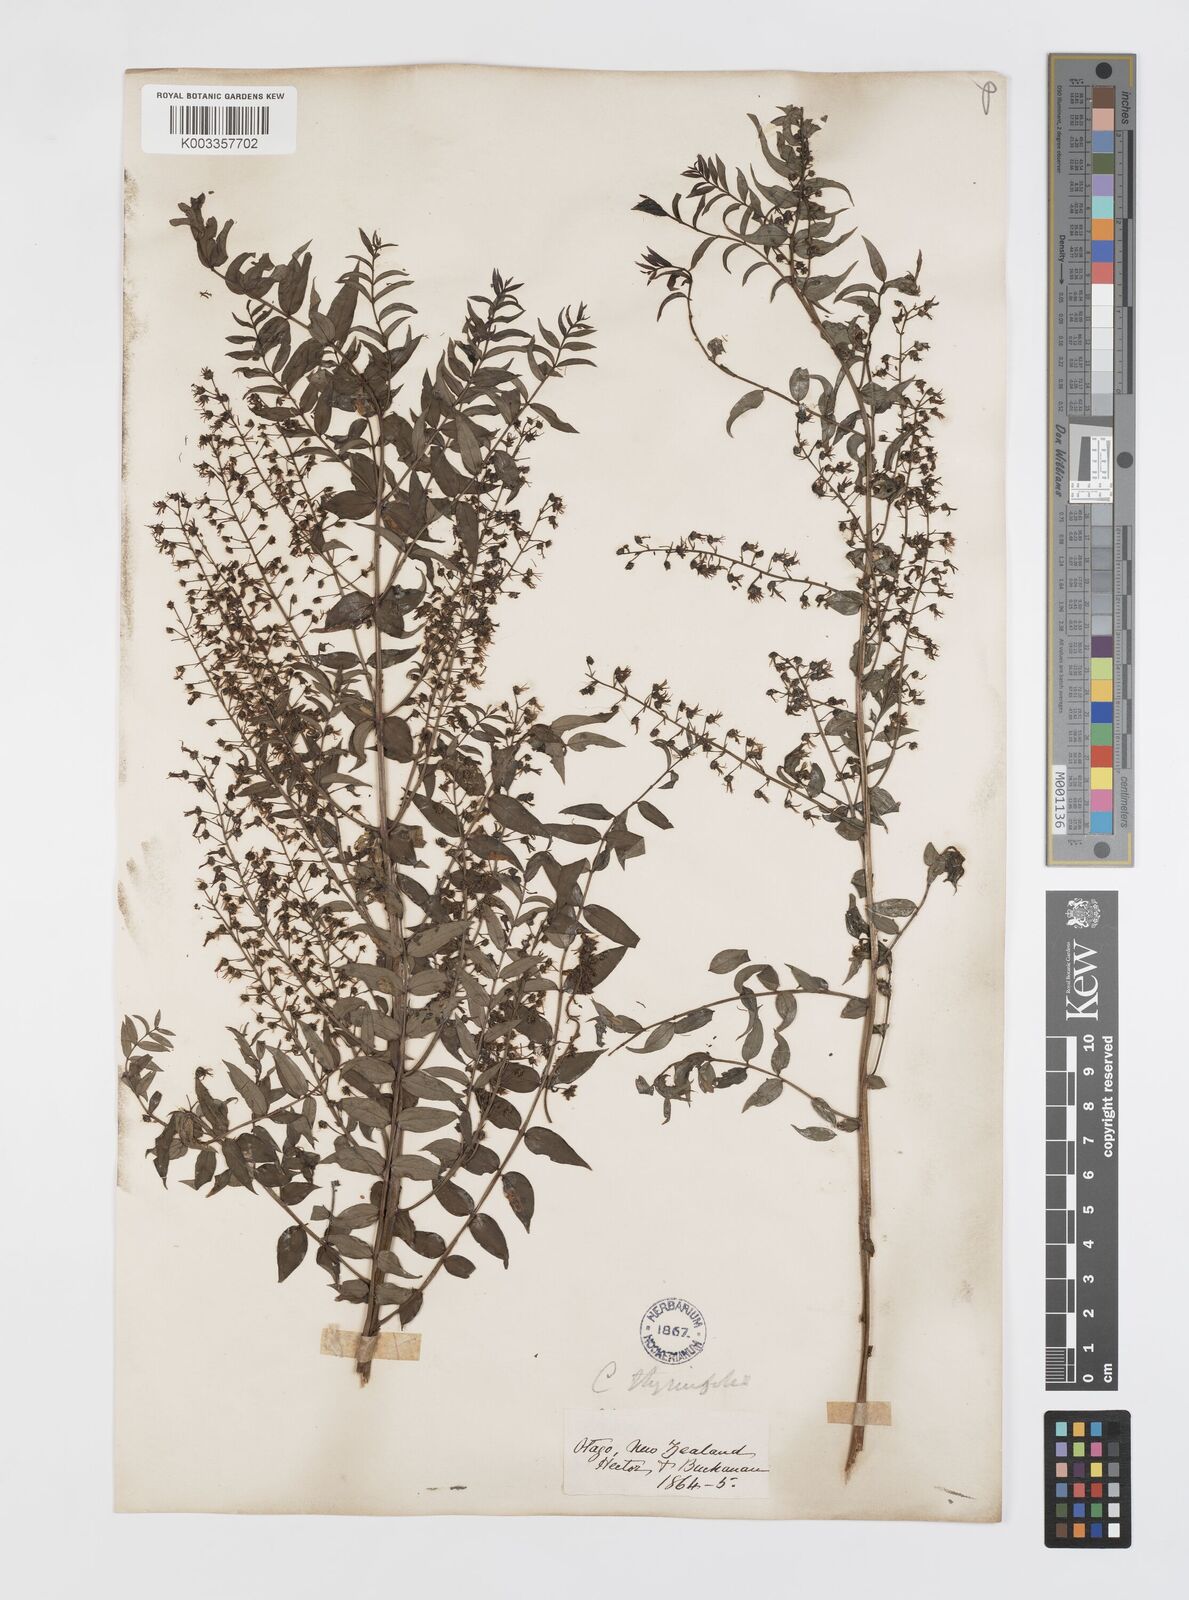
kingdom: Plantae
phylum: Tracheophyta
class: Magnoliopsida
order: Cucurbitales
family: Coriariaceae
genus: Coriaria
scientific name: Coriaria lurida
